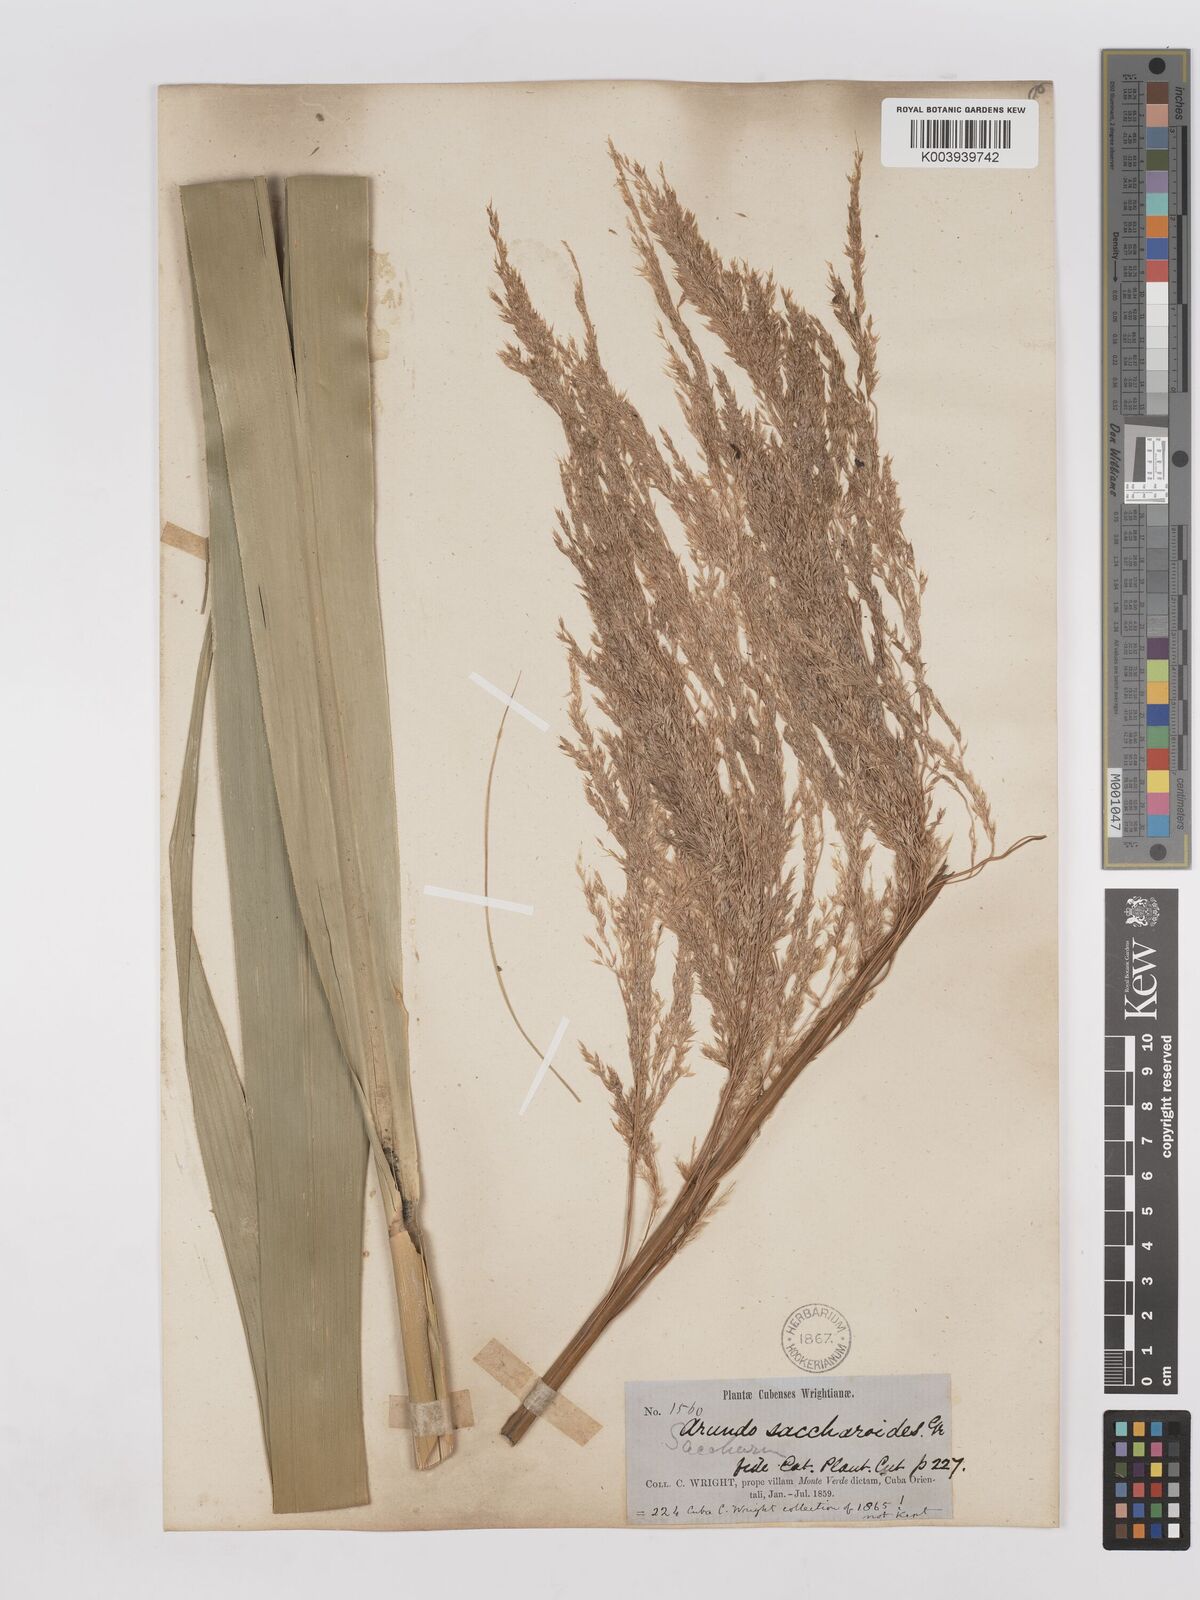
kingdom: Plantae
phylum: Tracheophyta
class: Liliopsida
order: Poales
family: Poaceae
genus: Gynerium
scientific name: Gynerium sagittatum
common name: Wild cane
